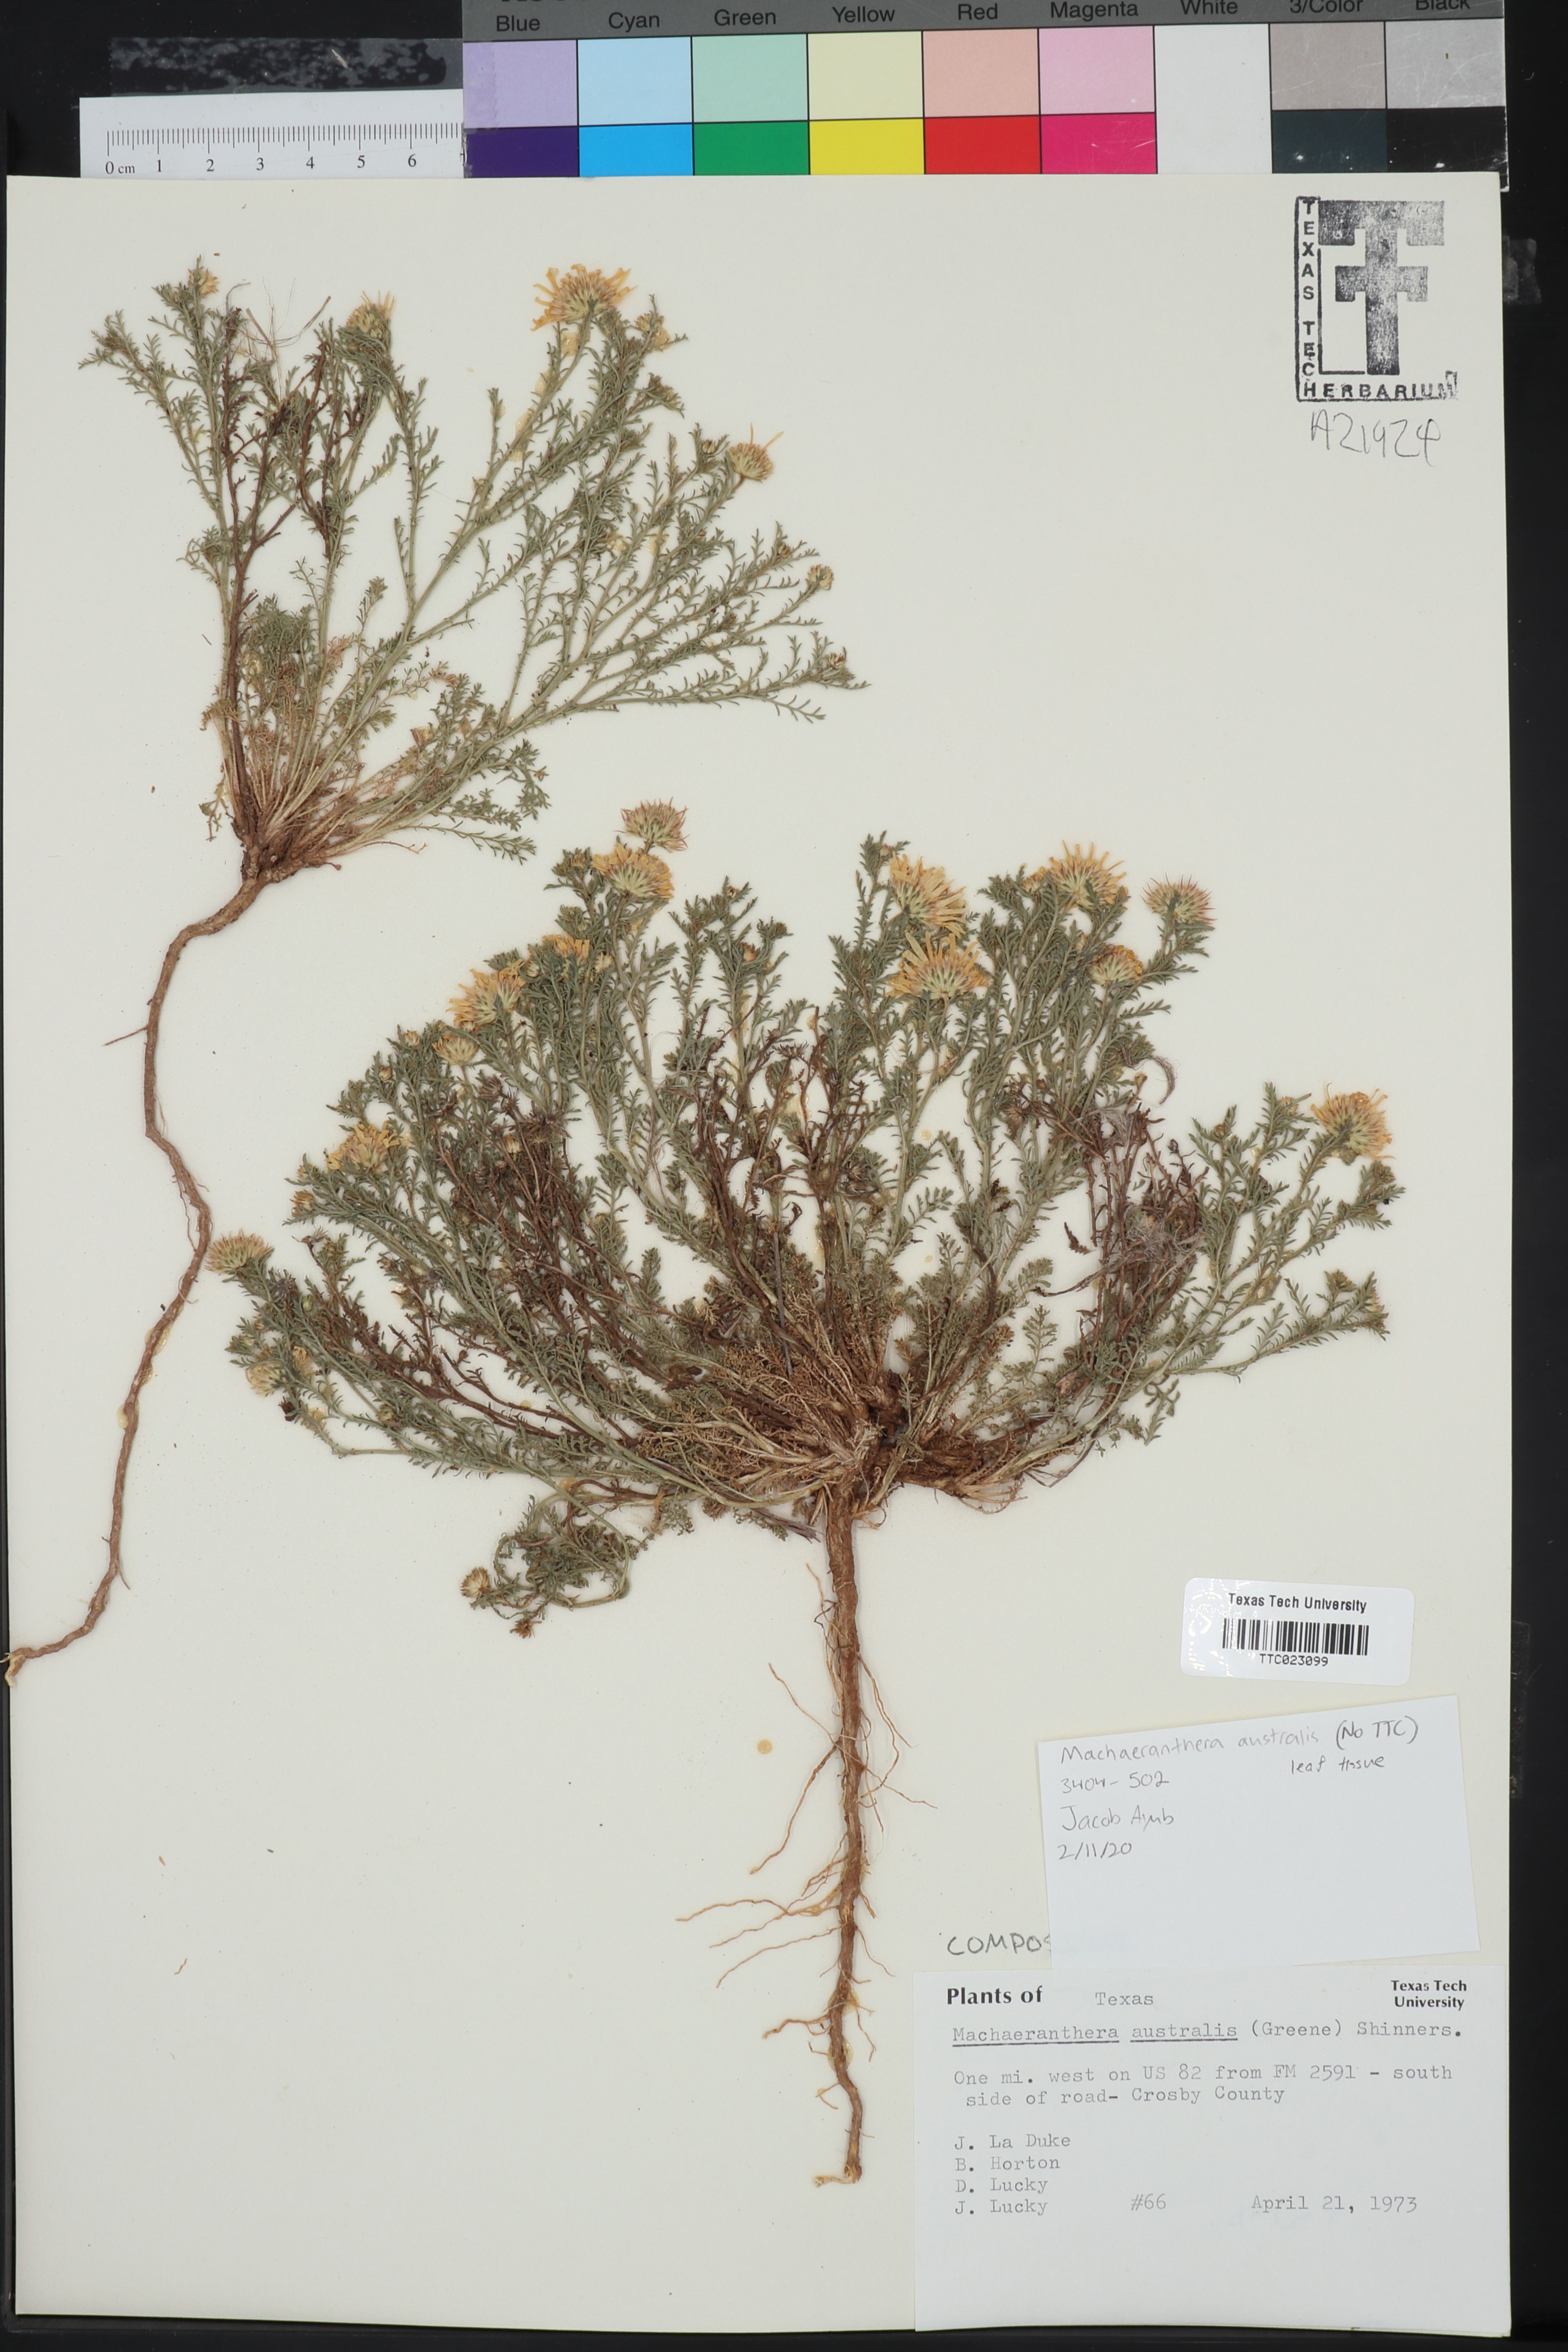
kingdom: Plantae
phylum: Tracheophyta
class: Magnoliopsida
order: Asterales
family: Asteraceae
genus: Xanthisma
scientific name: Xanthisma spinulosum
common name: Spiny goldenweed
